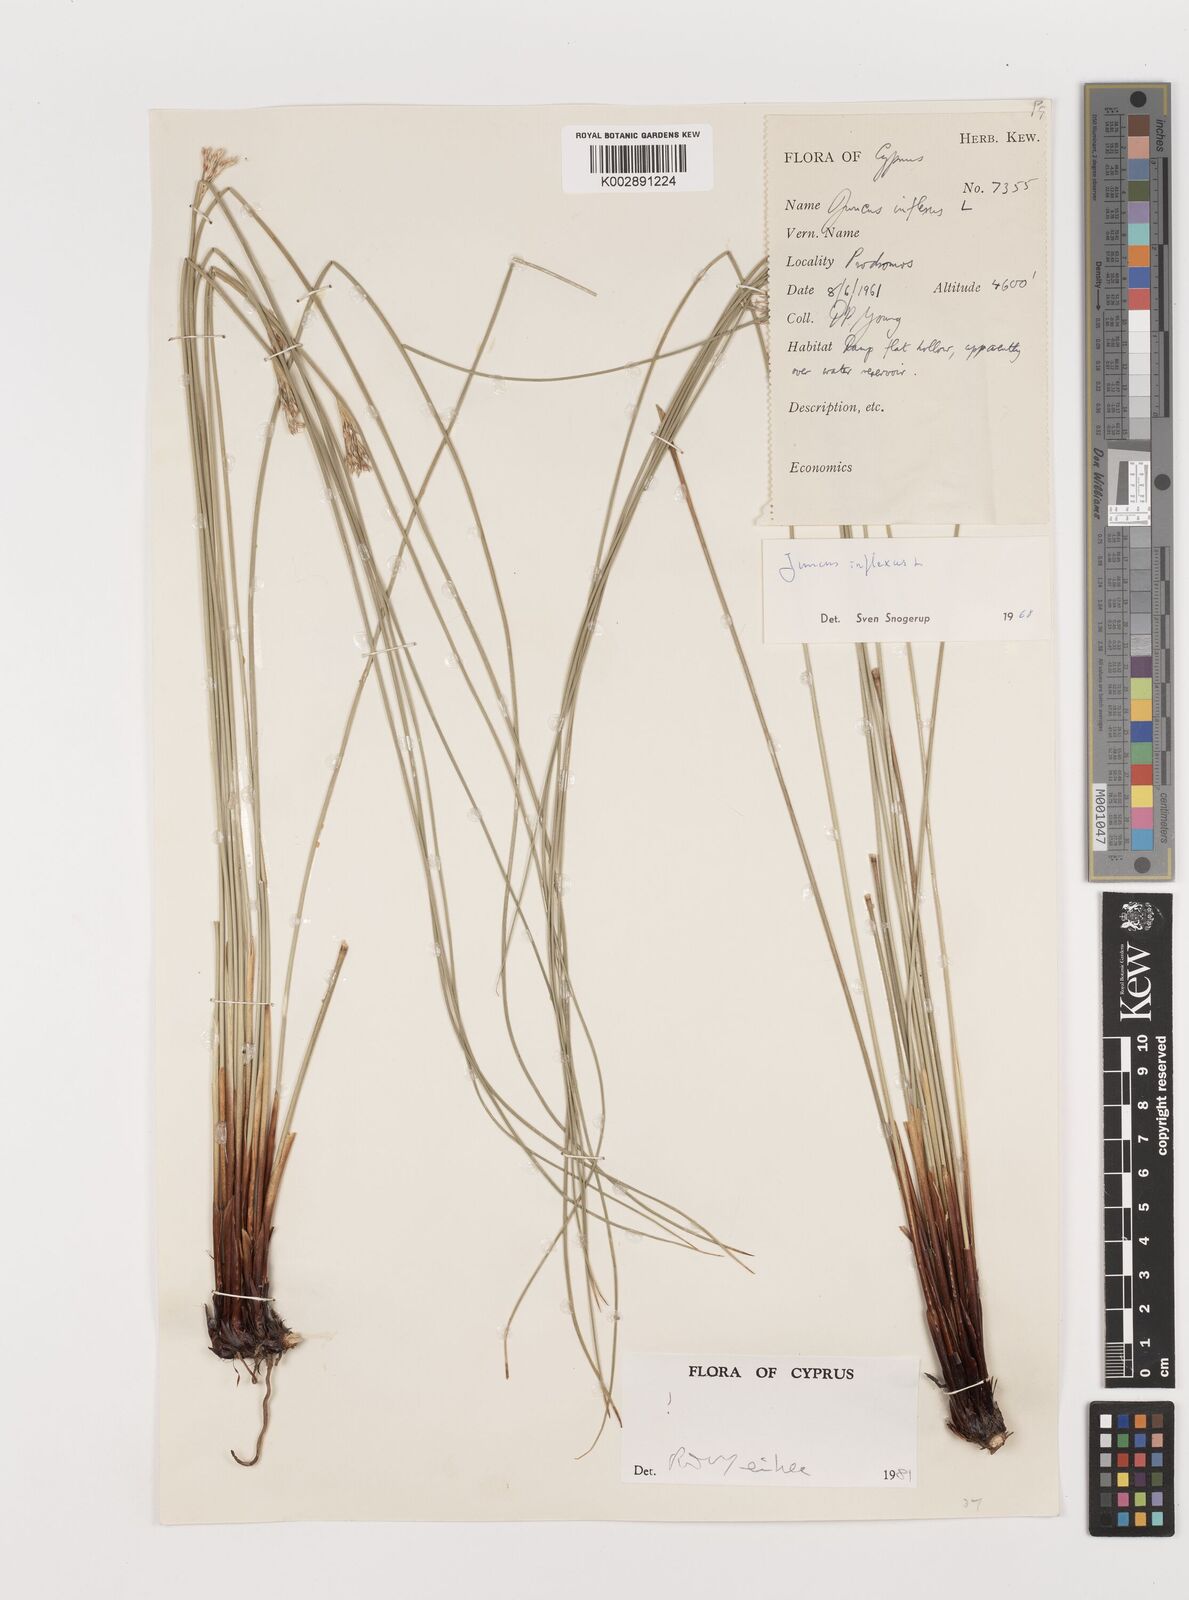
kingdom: Plantae
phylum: Tracheophyta
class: Liliopsida
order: Poales
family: Juncaceae
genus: Juncus
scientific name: Juncus inflexus
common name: Hard rush
